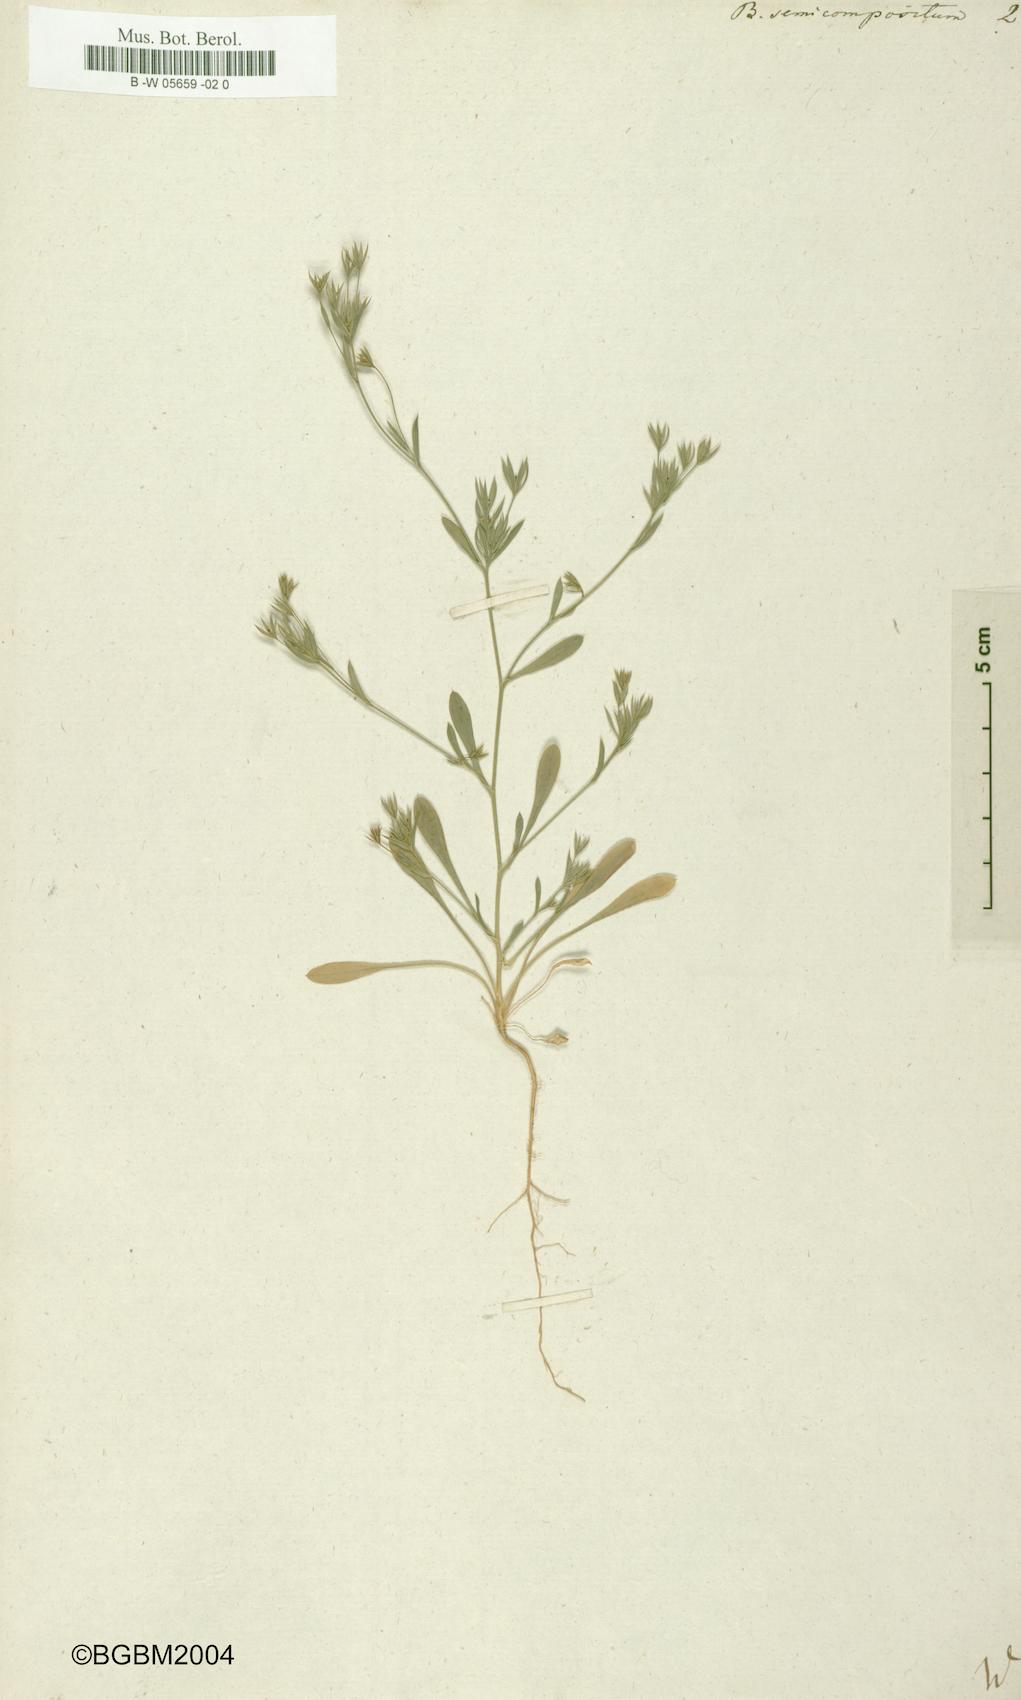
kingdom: Plantae
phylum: Tracheophyta
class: Magnoliopsida
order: Apiales
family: Apiaceae
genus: Bupleurum
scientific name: Bupleurum semicompositum
